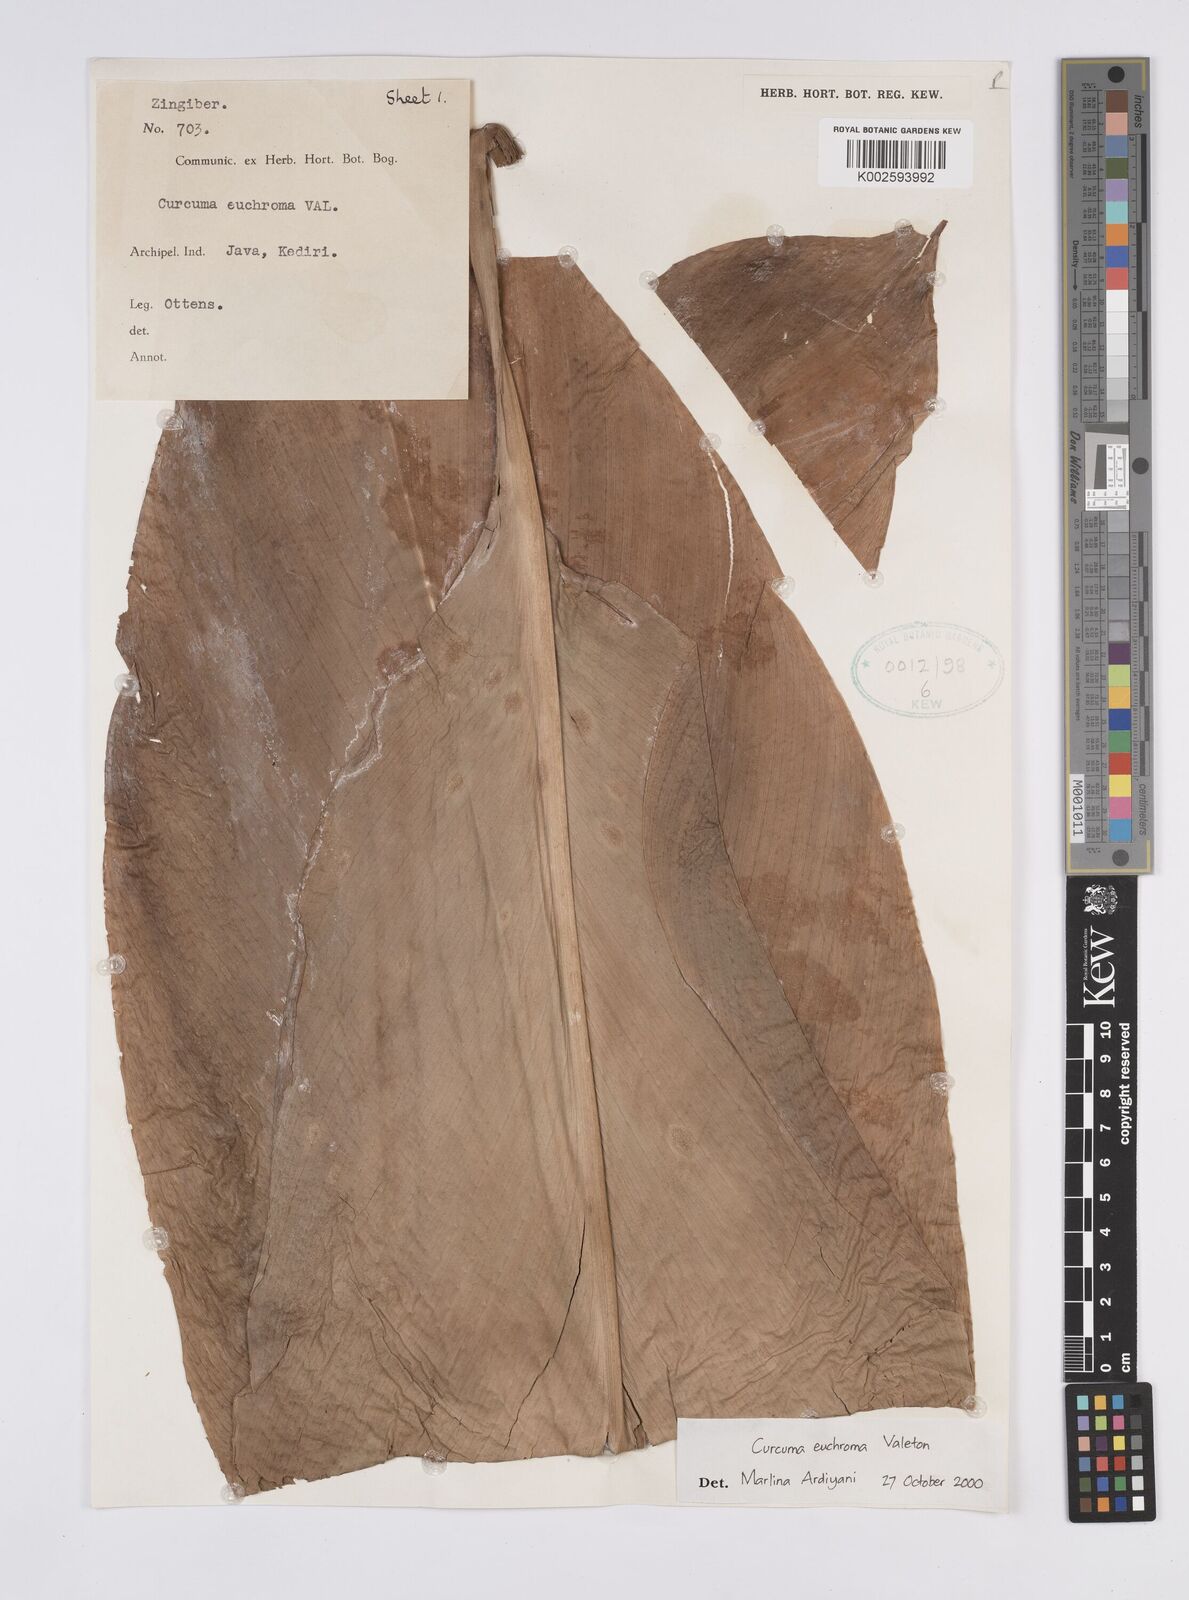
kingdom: Plantae
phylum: Tracheophyta
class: Liliopsida
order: Zingiberales
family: Zingiberaceae
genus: Curcuma
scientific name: Curcuma euchroma
